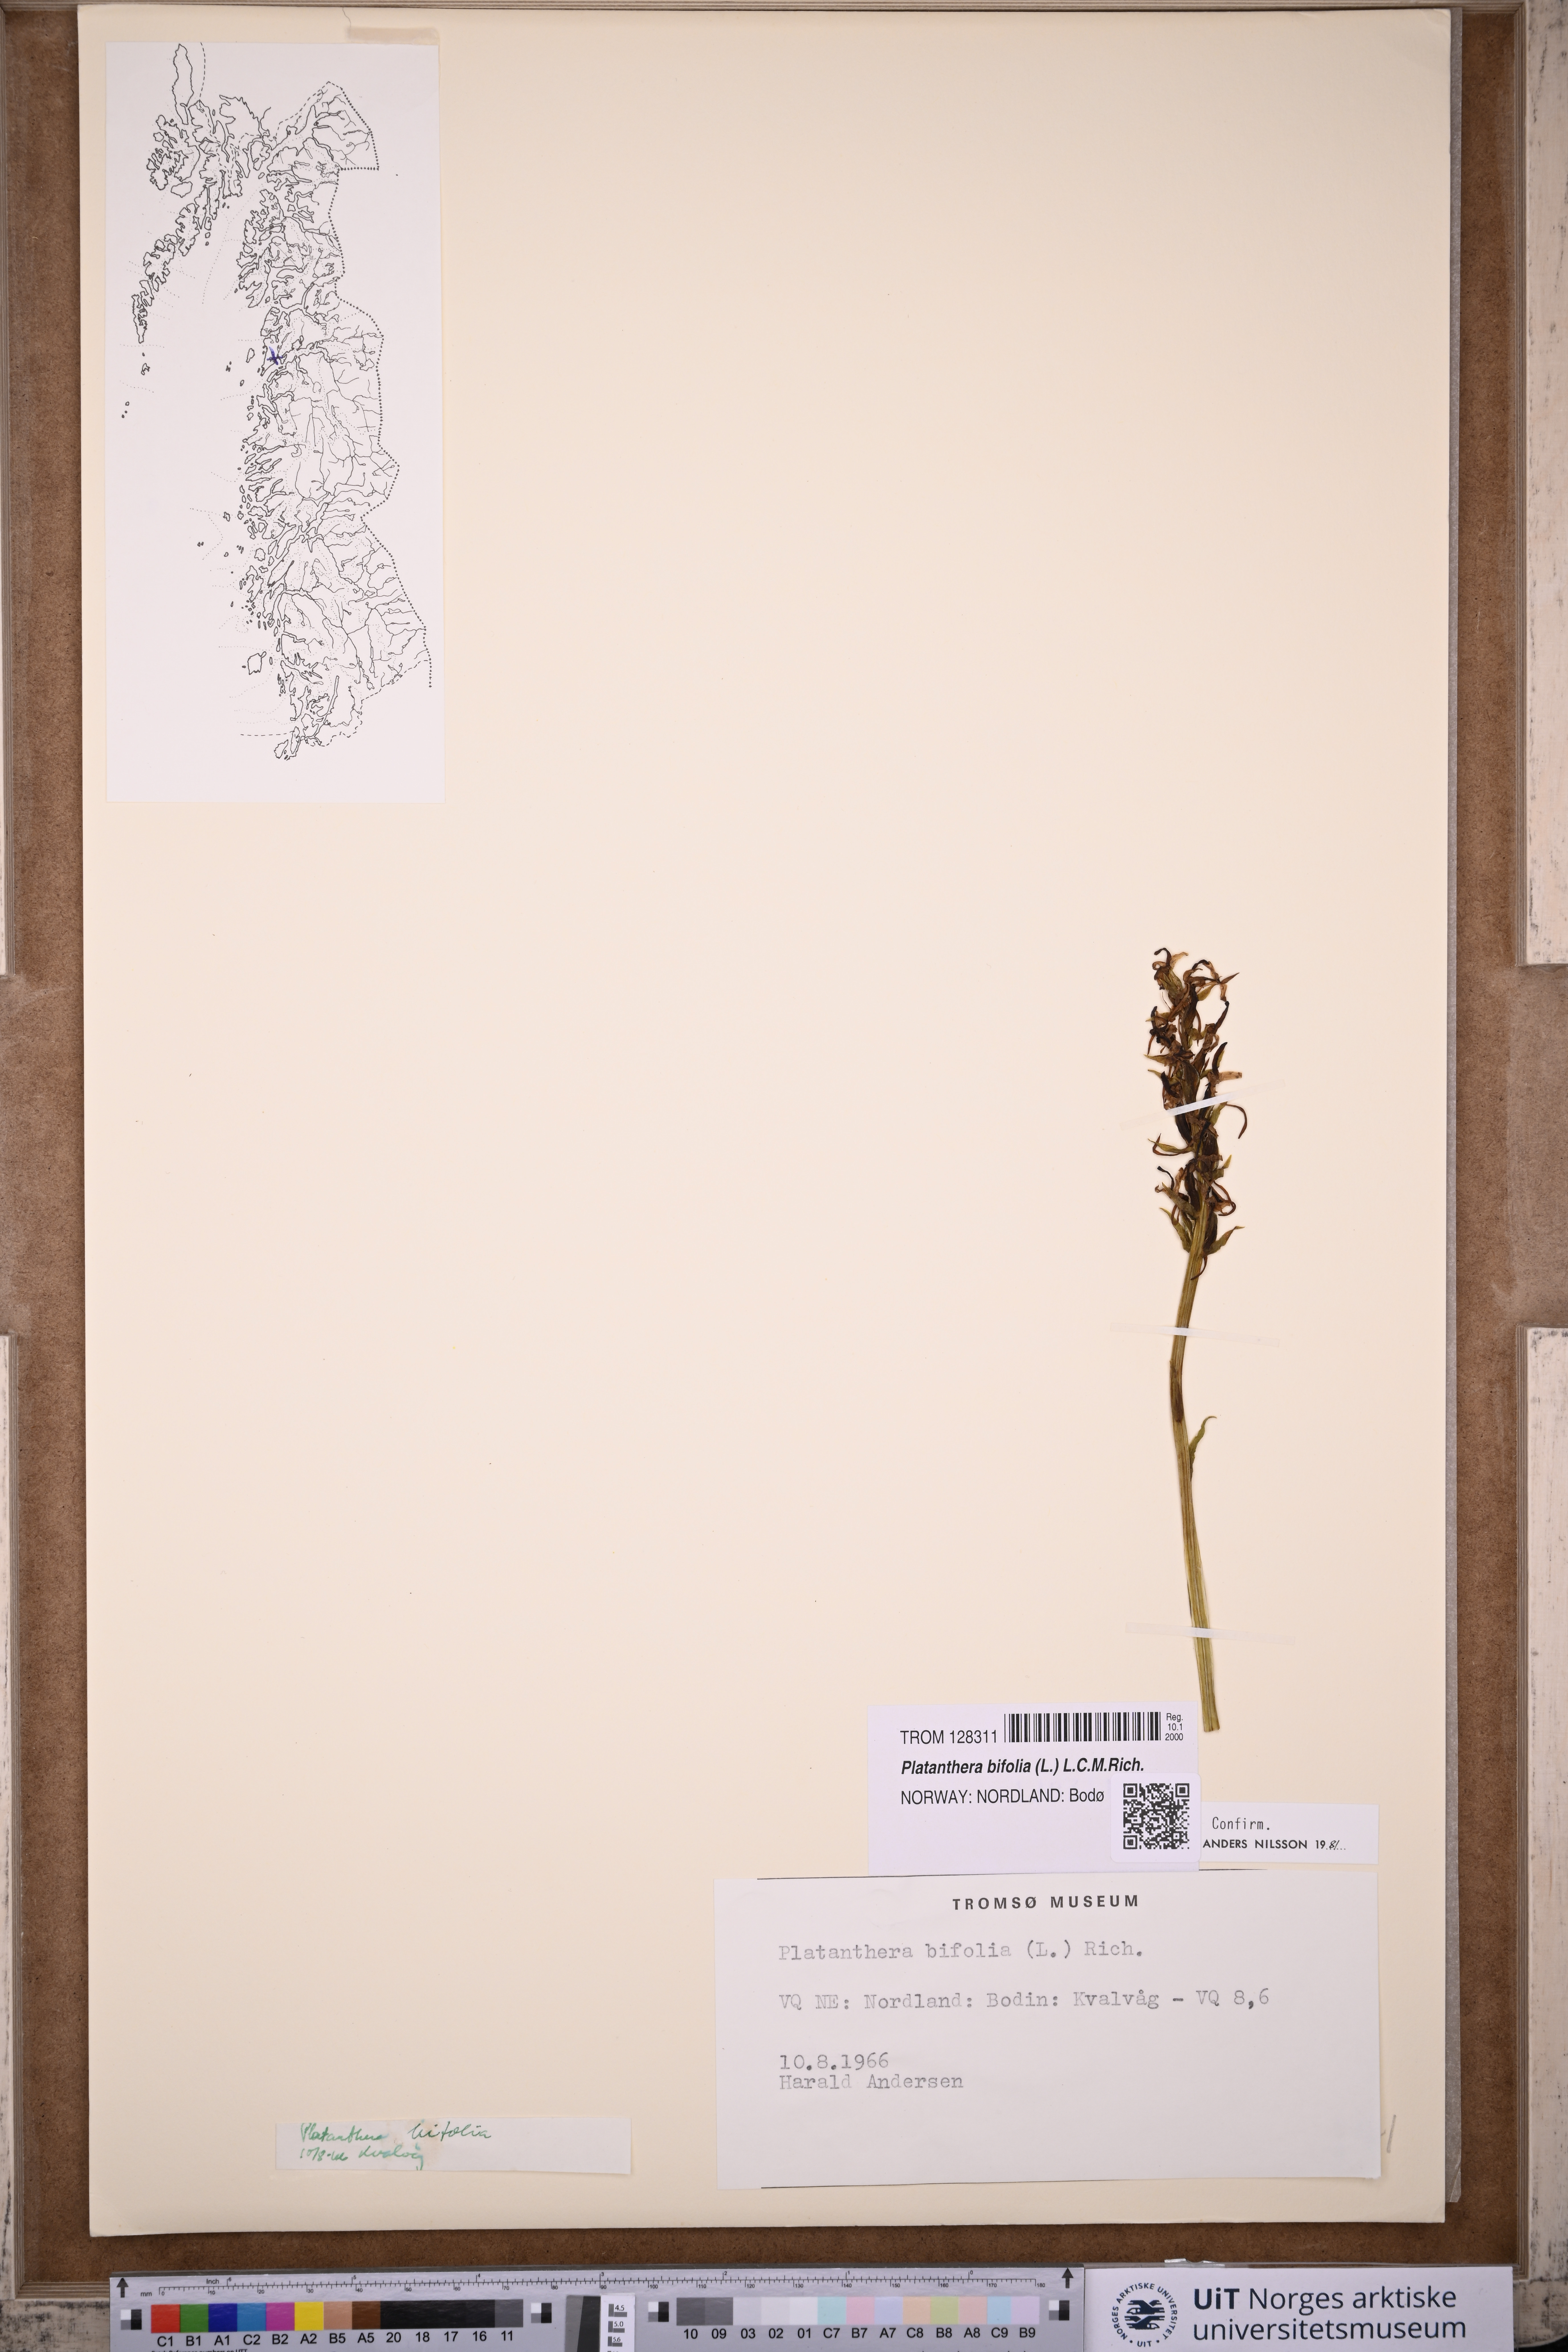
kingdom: Plantae
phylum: Tracheophyta
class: Liliopsida
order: Asparagales
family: Orchidaceae
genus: Platanthera
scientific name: Platanthera bifolia
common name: Lesser butterfly-orchid
